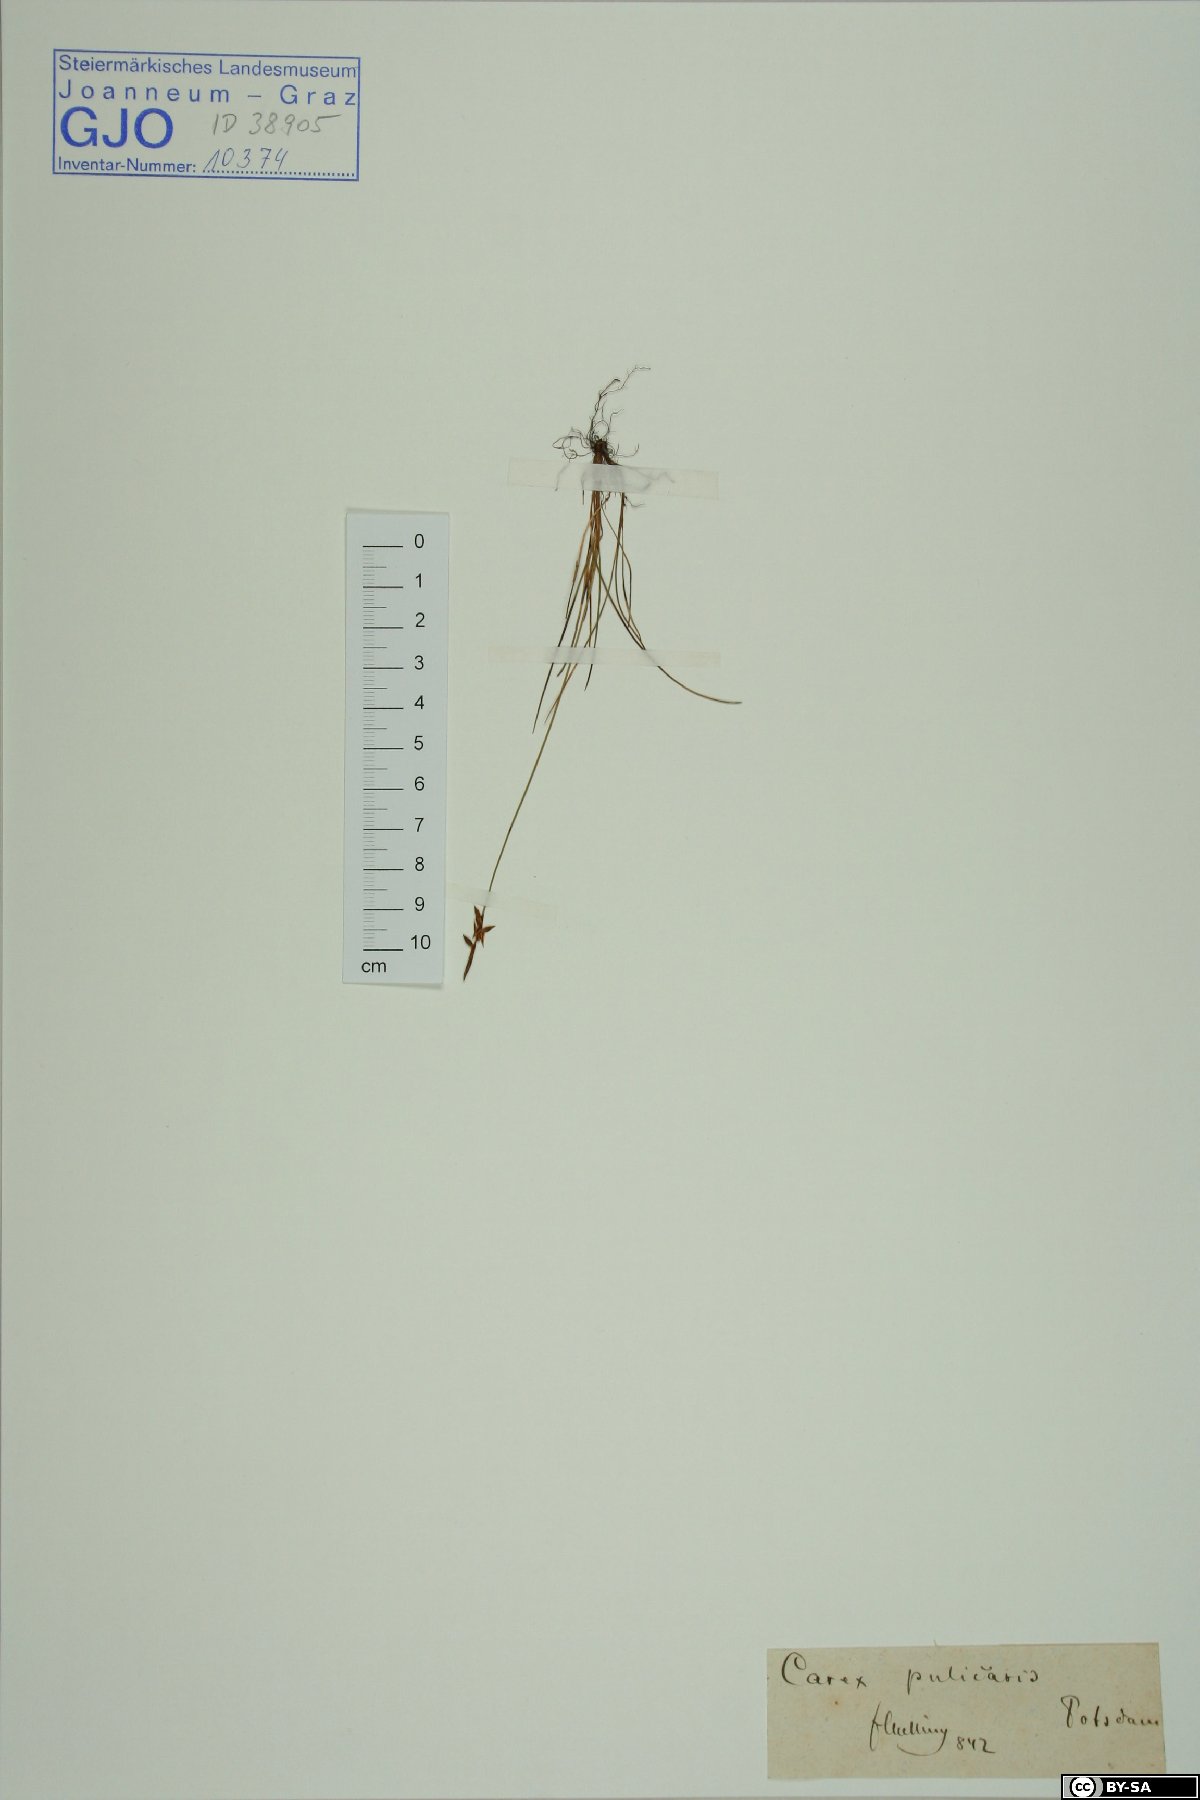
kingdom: Plantae
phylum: Tracheophyta
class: Liliopsida
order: Poales
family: Cyperaceae
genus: Carex
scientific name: Carex pulicaris
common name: Flea sedge
